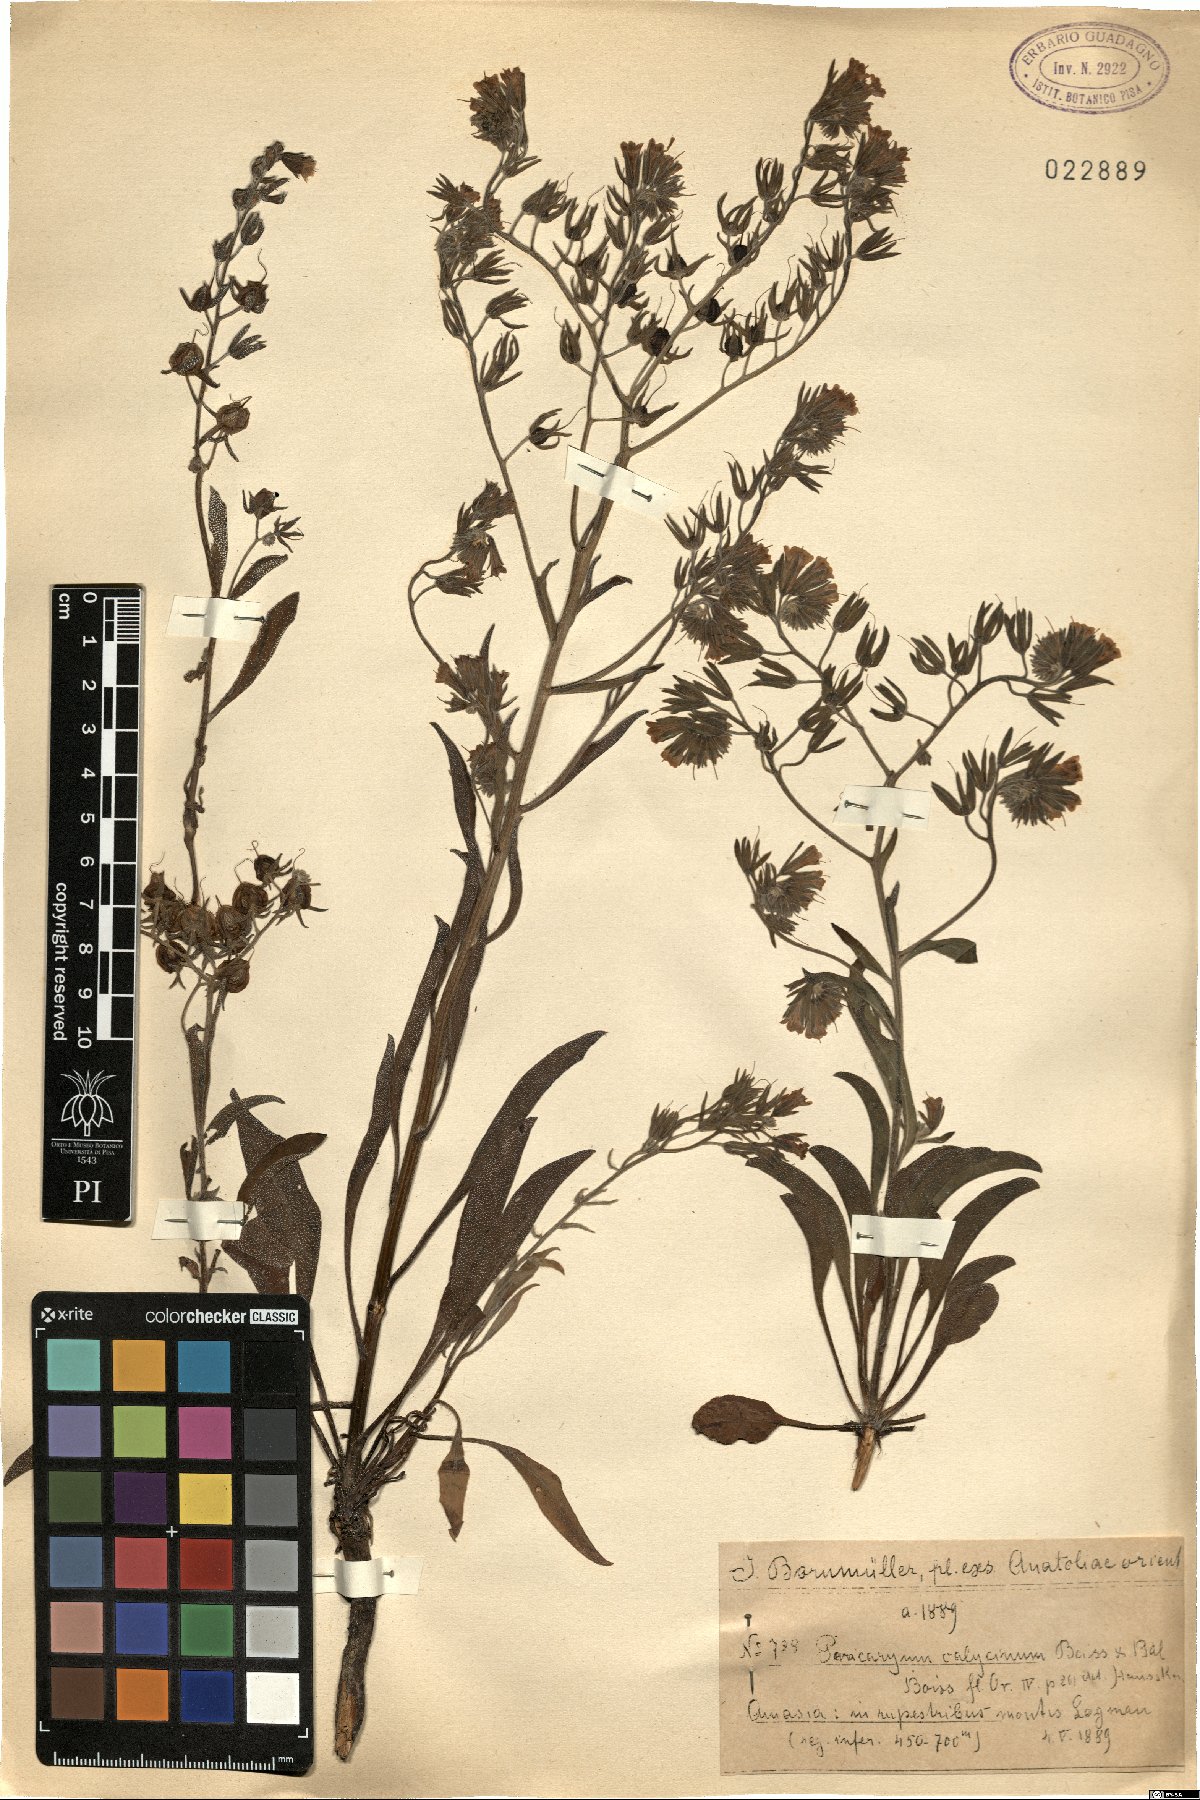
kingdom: Plantae
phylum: Tracheophyta
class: Magnoliopsida
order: Boraginales
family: Boraginaceae
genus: Paracaryum
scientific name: Paracaryum calycinum
